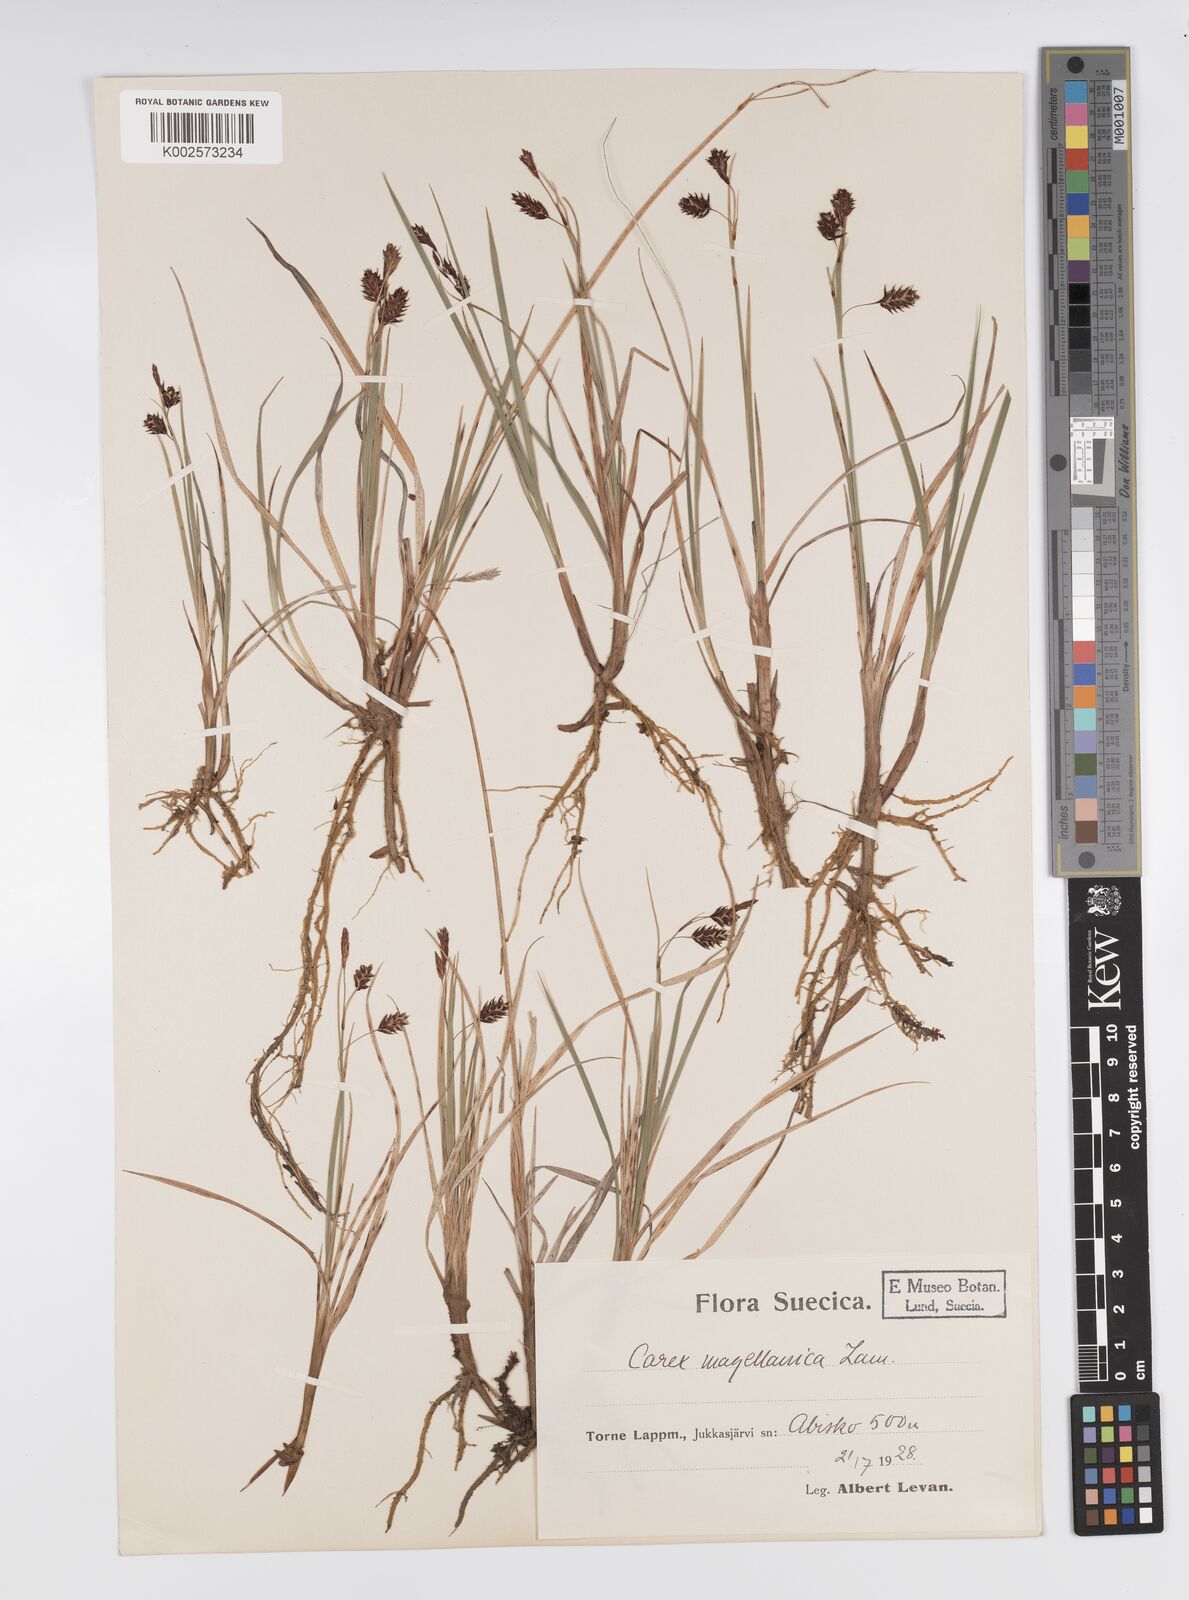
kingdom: Plantae
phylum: Tracheophyta
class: Liliopsida
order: Poales
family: Cyperaceae
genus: Carex
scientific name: Carex magellanica
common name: Bog sedge
